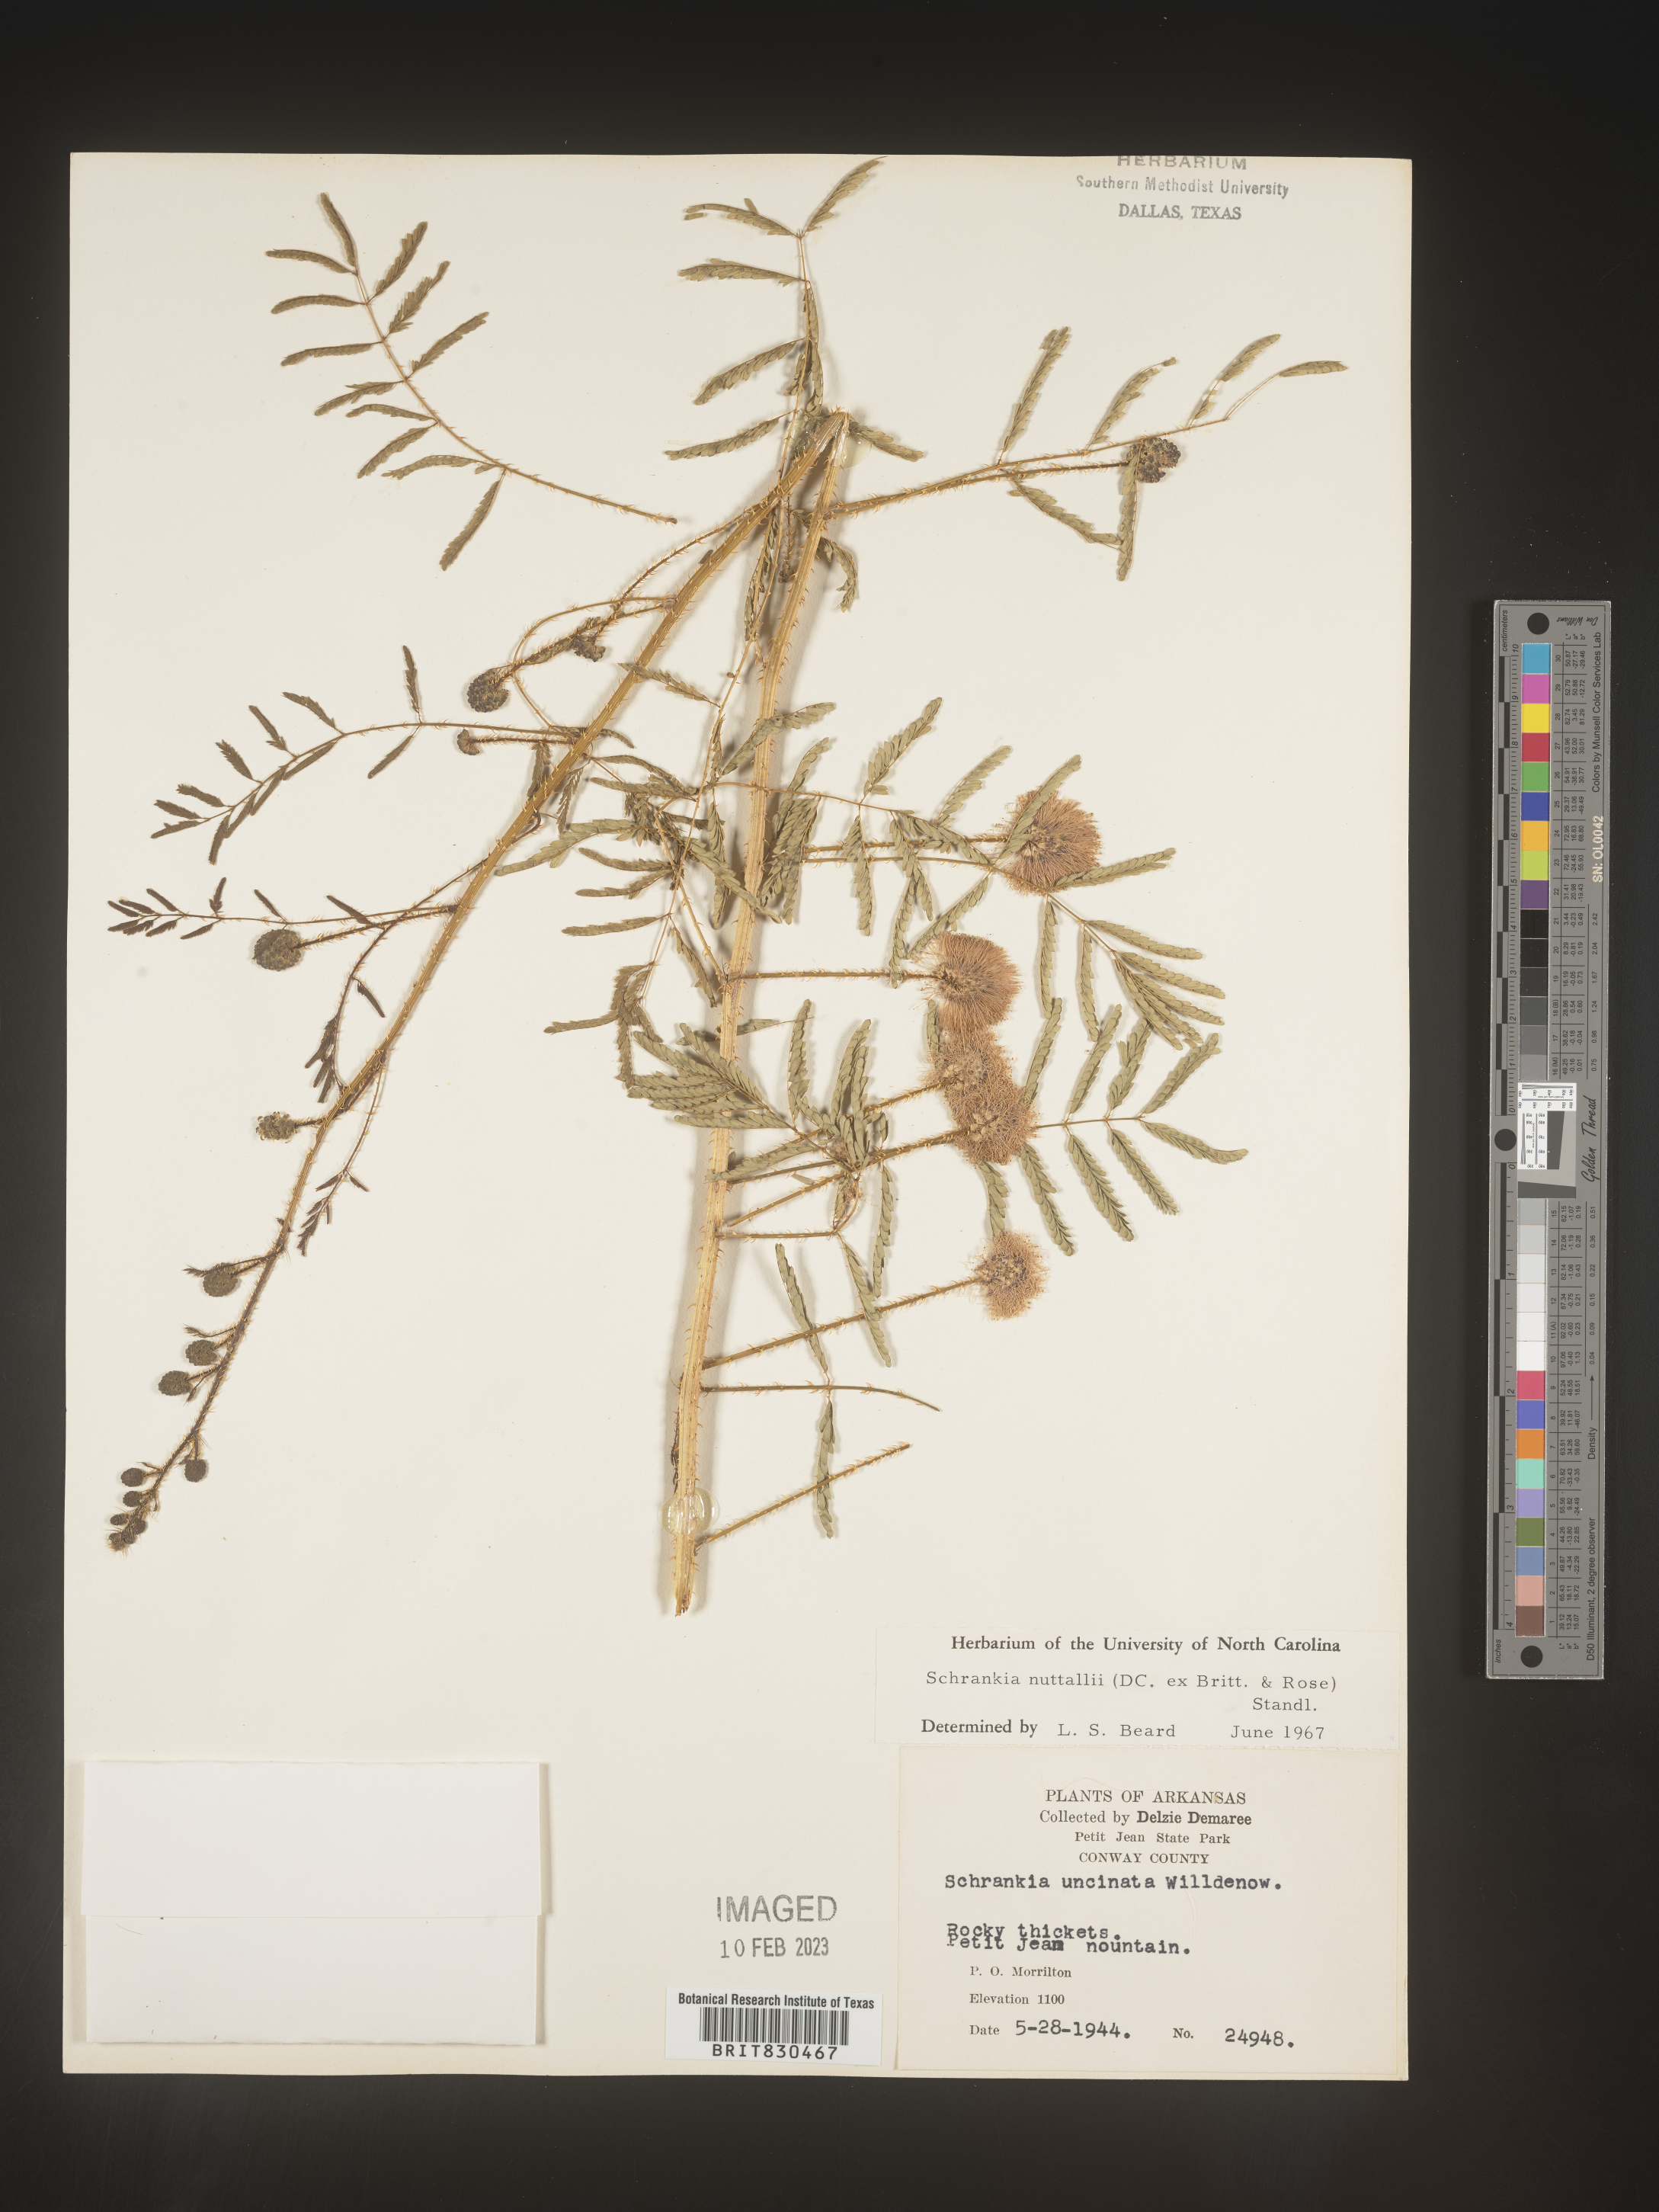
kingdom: Plantae
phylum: Tracheophyta
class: Magnoliopsida
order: Fabales
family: Fabaceae
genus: Mimosa
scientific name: Mimosa quadrivalvis
